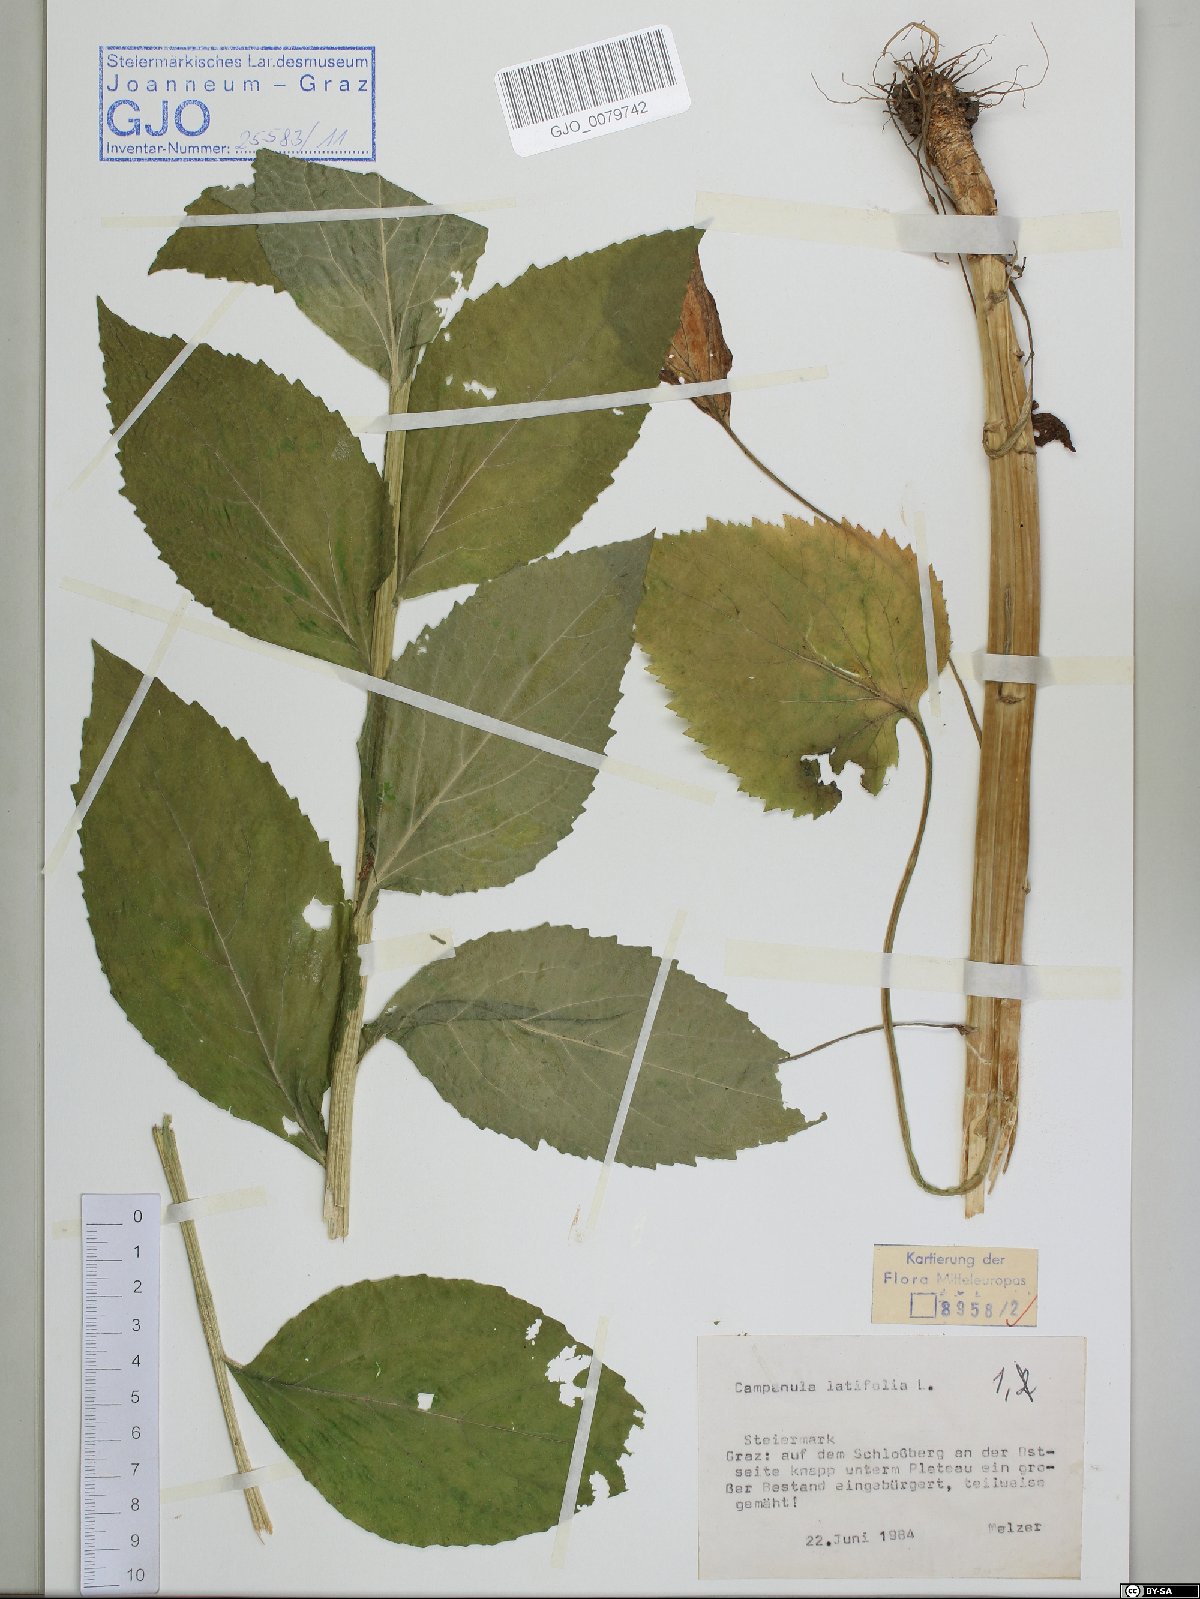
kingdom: Plantae
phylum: Tracheophyta
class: Magnoliopsida
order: Asterales
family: Campanulaceae
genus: Campanula
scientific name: Campanula latifolia
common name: Giant bellflower
